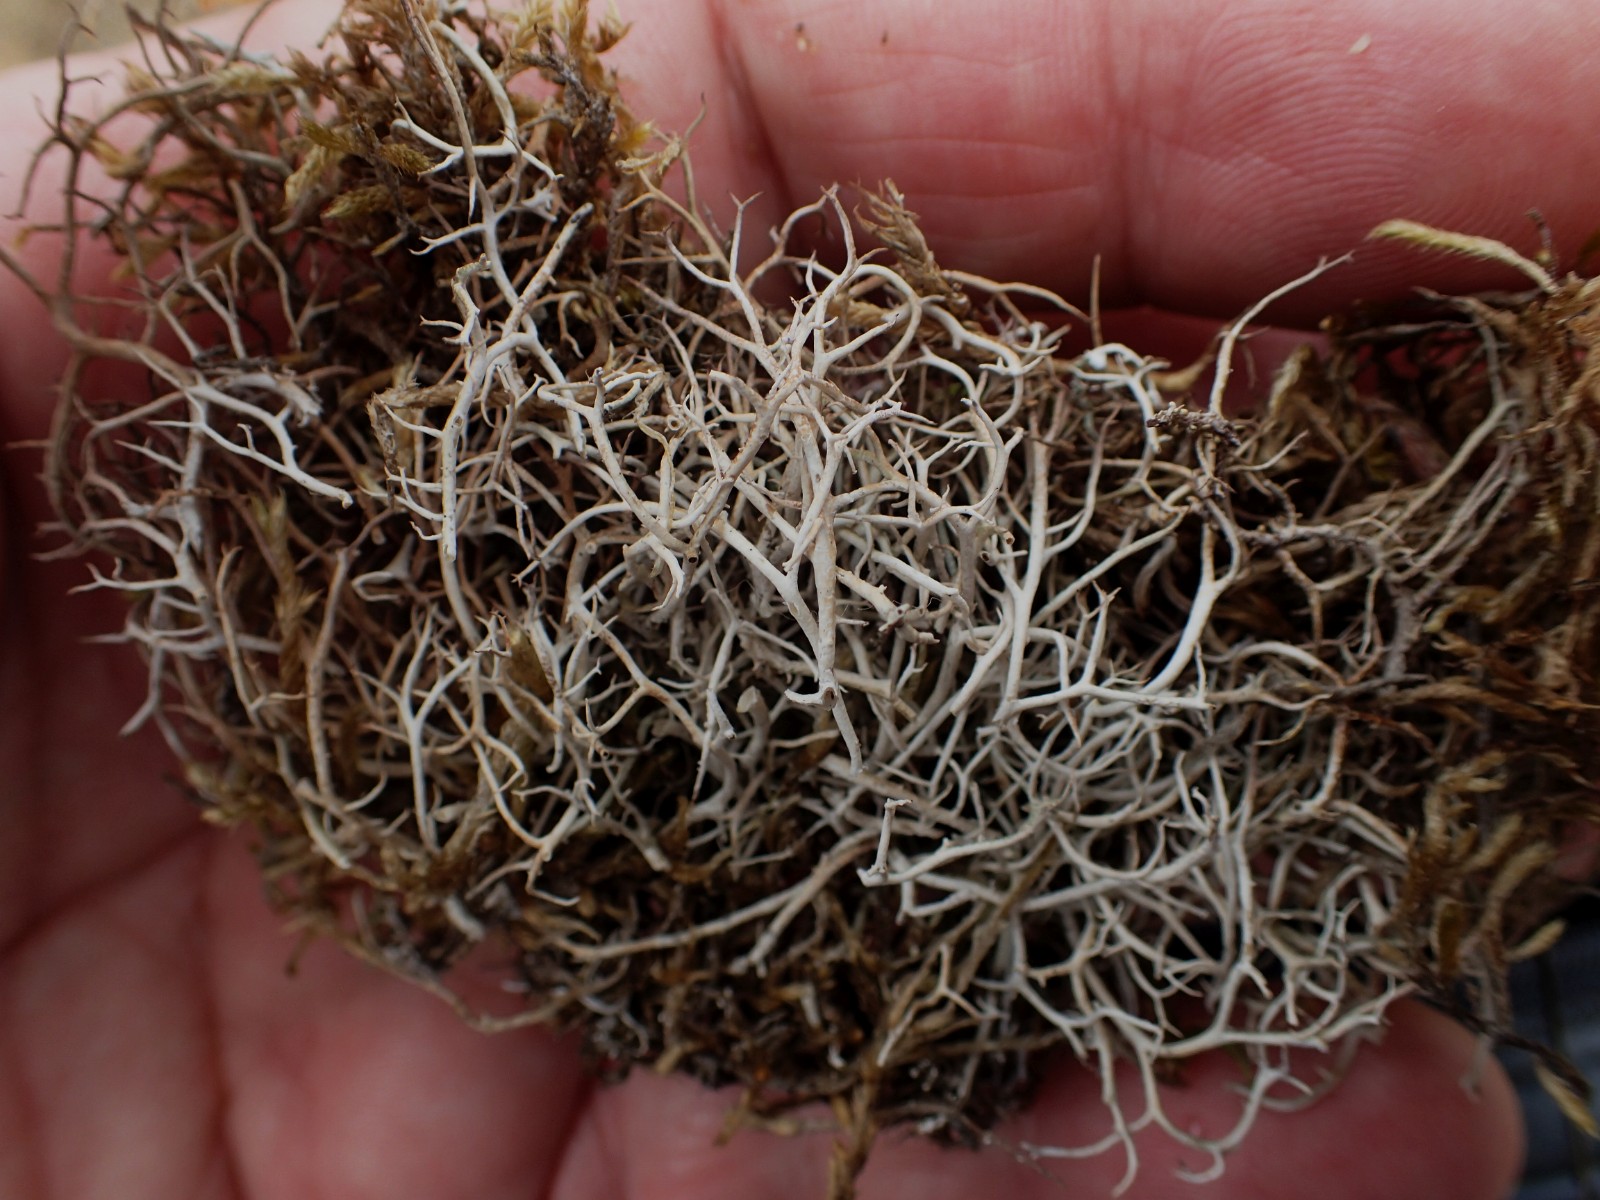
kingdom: Fungi
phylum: Ascomycota
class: Lecanoromycetes
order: Lecanorales
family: Cladoniaceae
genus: Cladonia
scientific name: Cladonia furcata
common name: kløftet bægerlav
